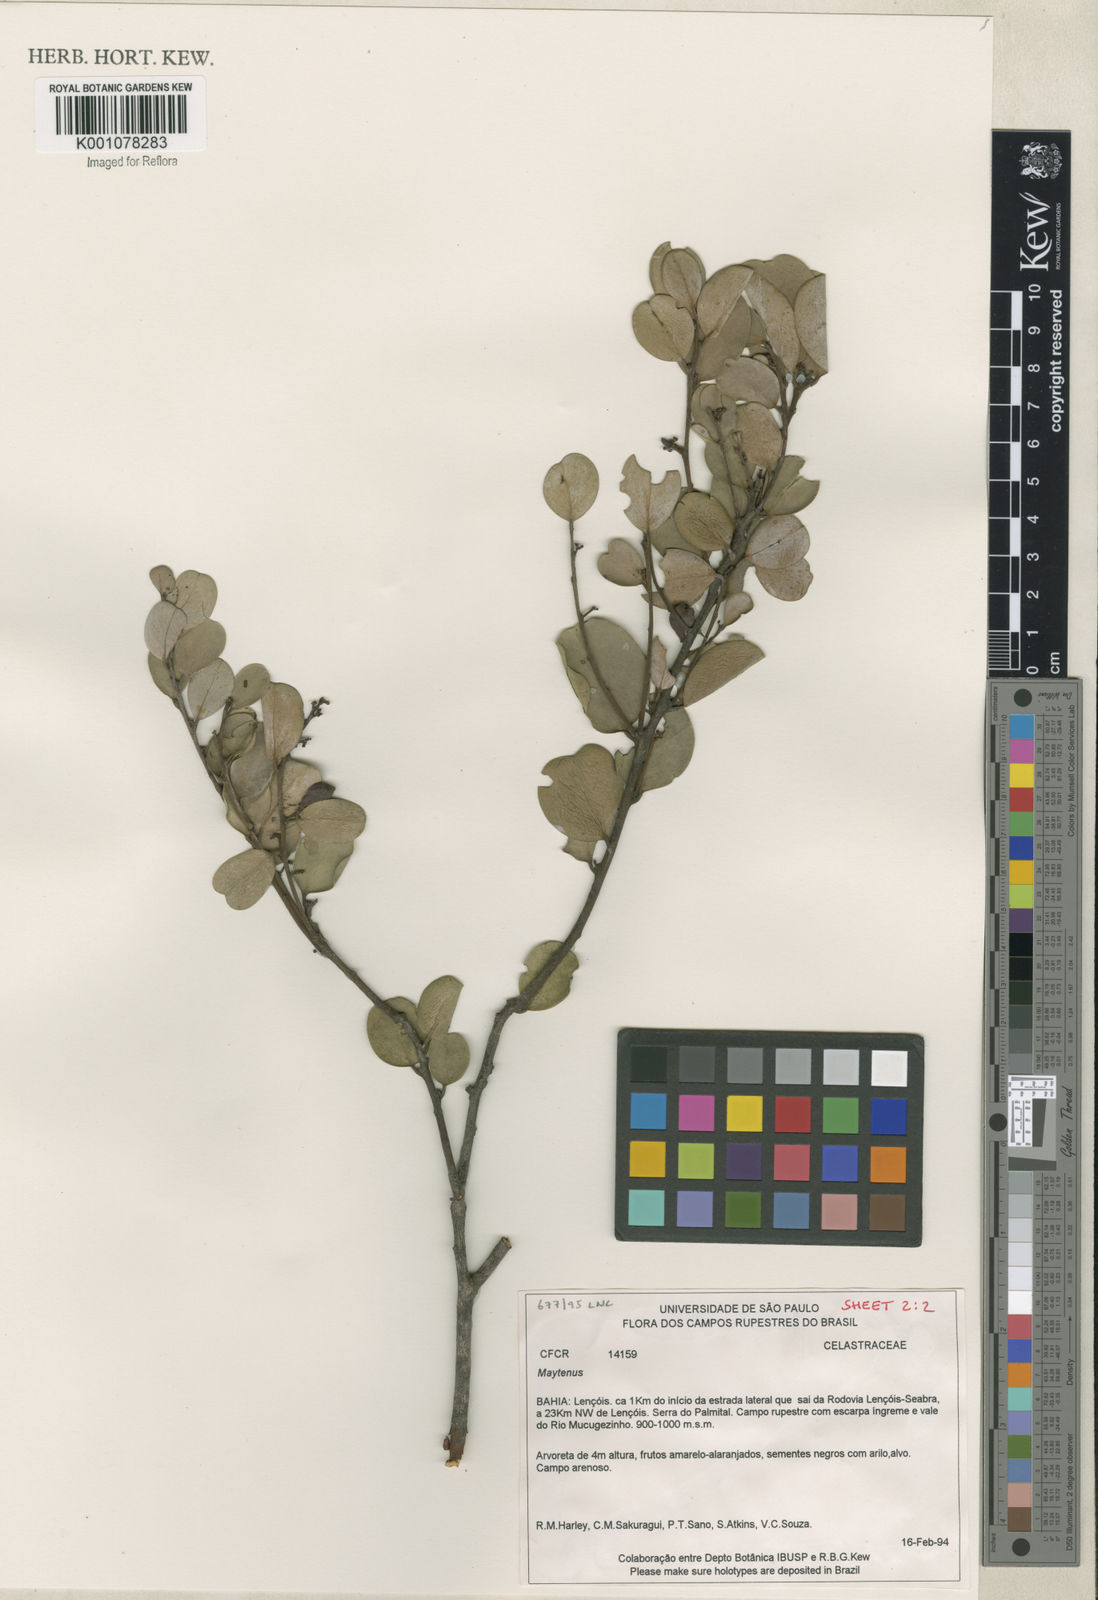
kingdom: Plantae
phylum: Tracheophyta
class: Magnoliopsida
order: Celastrales
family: Celastraceae
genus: Maytenus
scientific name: Maytenus
